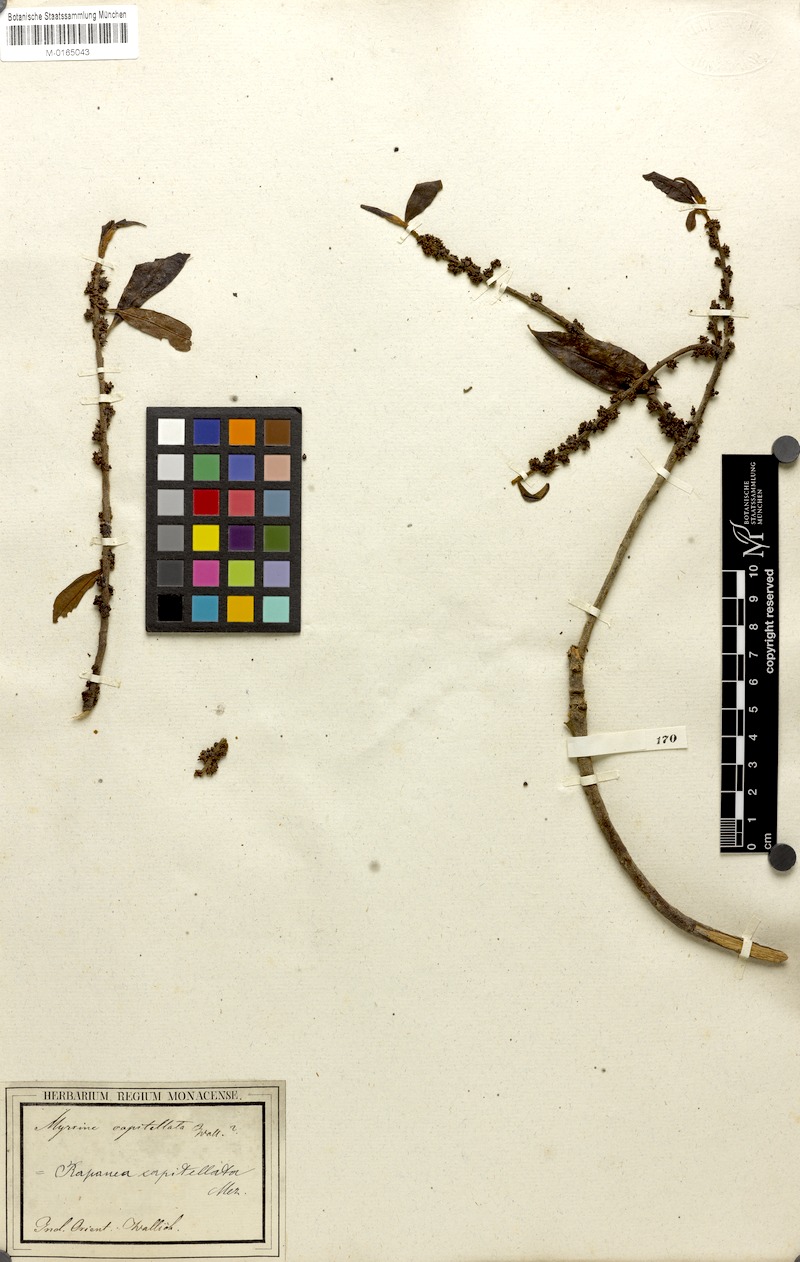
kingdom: Plantae
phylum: Tracheophyta
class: Magnoliopsida
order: Ericales
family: Primulaceae
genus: Myrsine
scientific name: Myrsine capitellata
